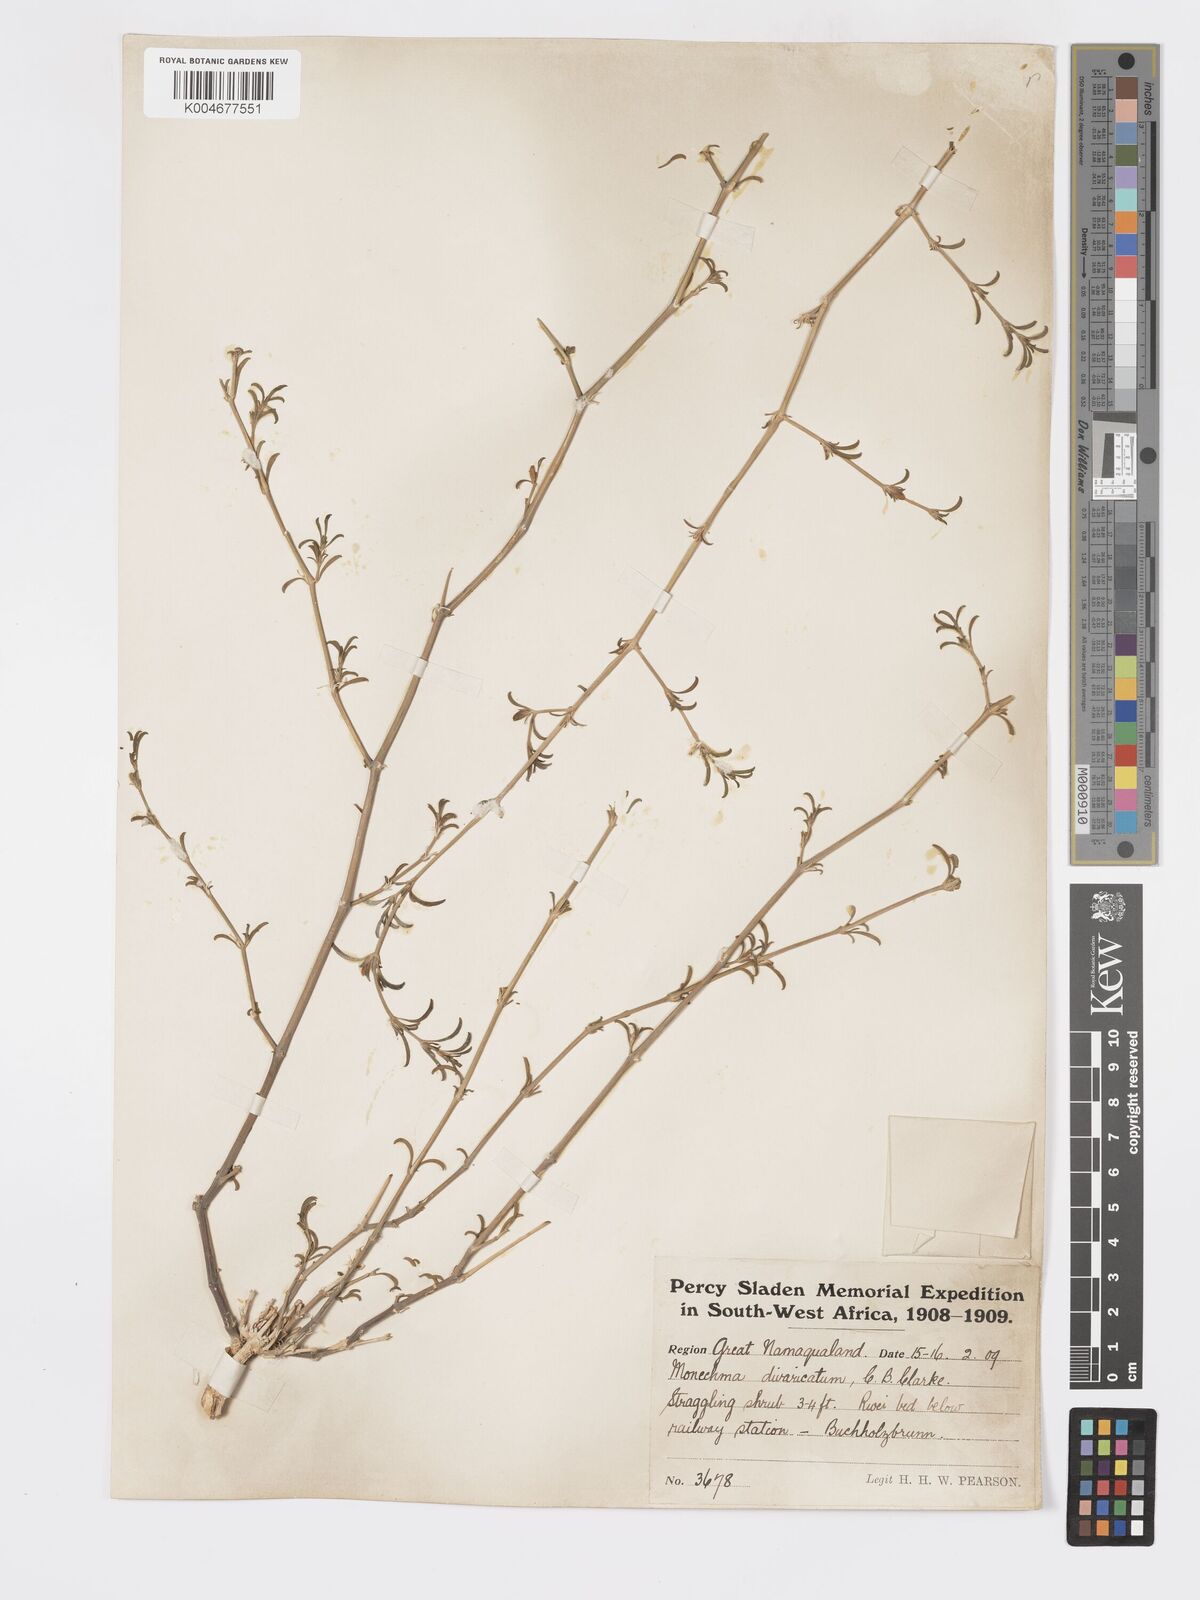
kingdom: Plantae
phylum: Tracheophyta
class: Magnoliopsida
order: Lamiales
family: Acanthaceae
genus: Pogonospermum
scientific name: Pogonospermum
